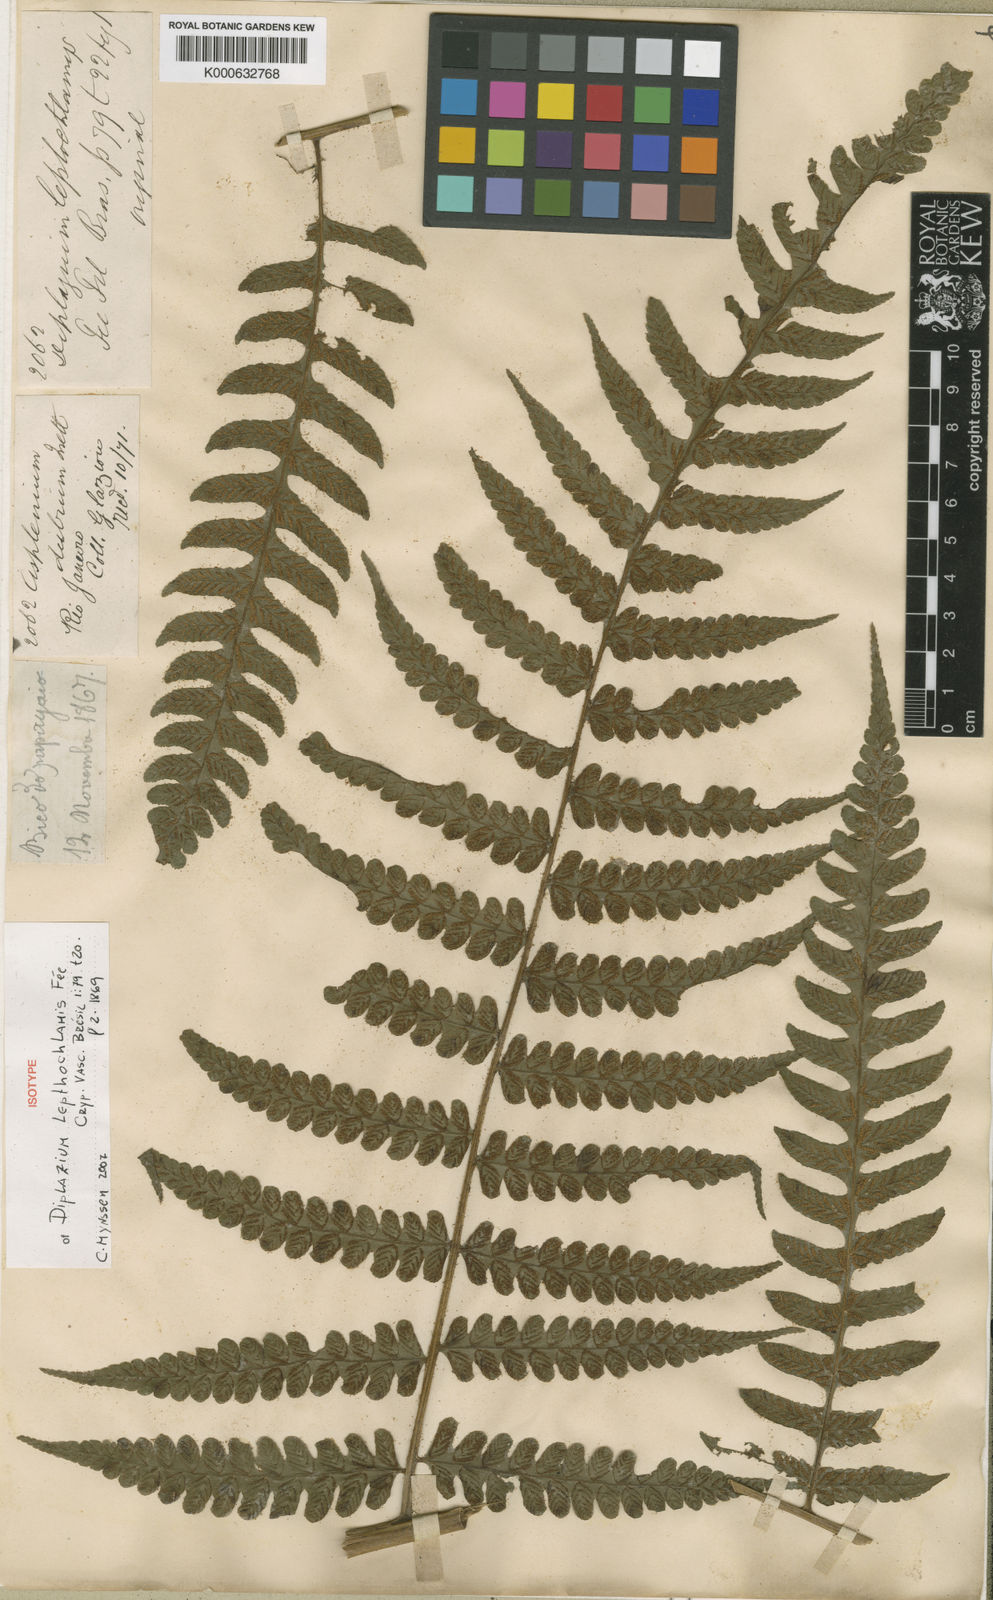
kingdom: Plantae
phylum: Tracheophyta
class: Polypodiopsida
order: Polypodiales
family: Athyriaceae
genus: Diplazium
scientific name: Diplazium cristatum
